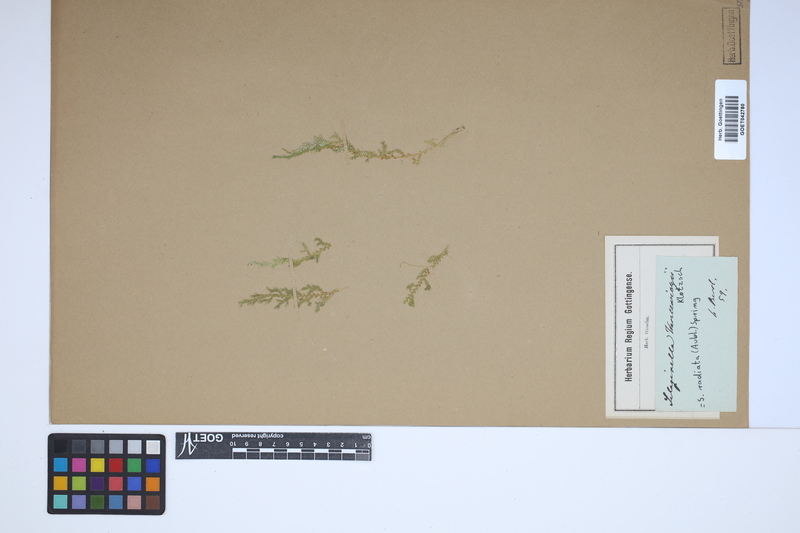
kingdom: Plantae
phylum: Tracheophyta
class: Lycopodiopsida
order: Selaginellales
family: Selaginellaceae
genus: Selaginella
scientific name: Selaginella radiata
